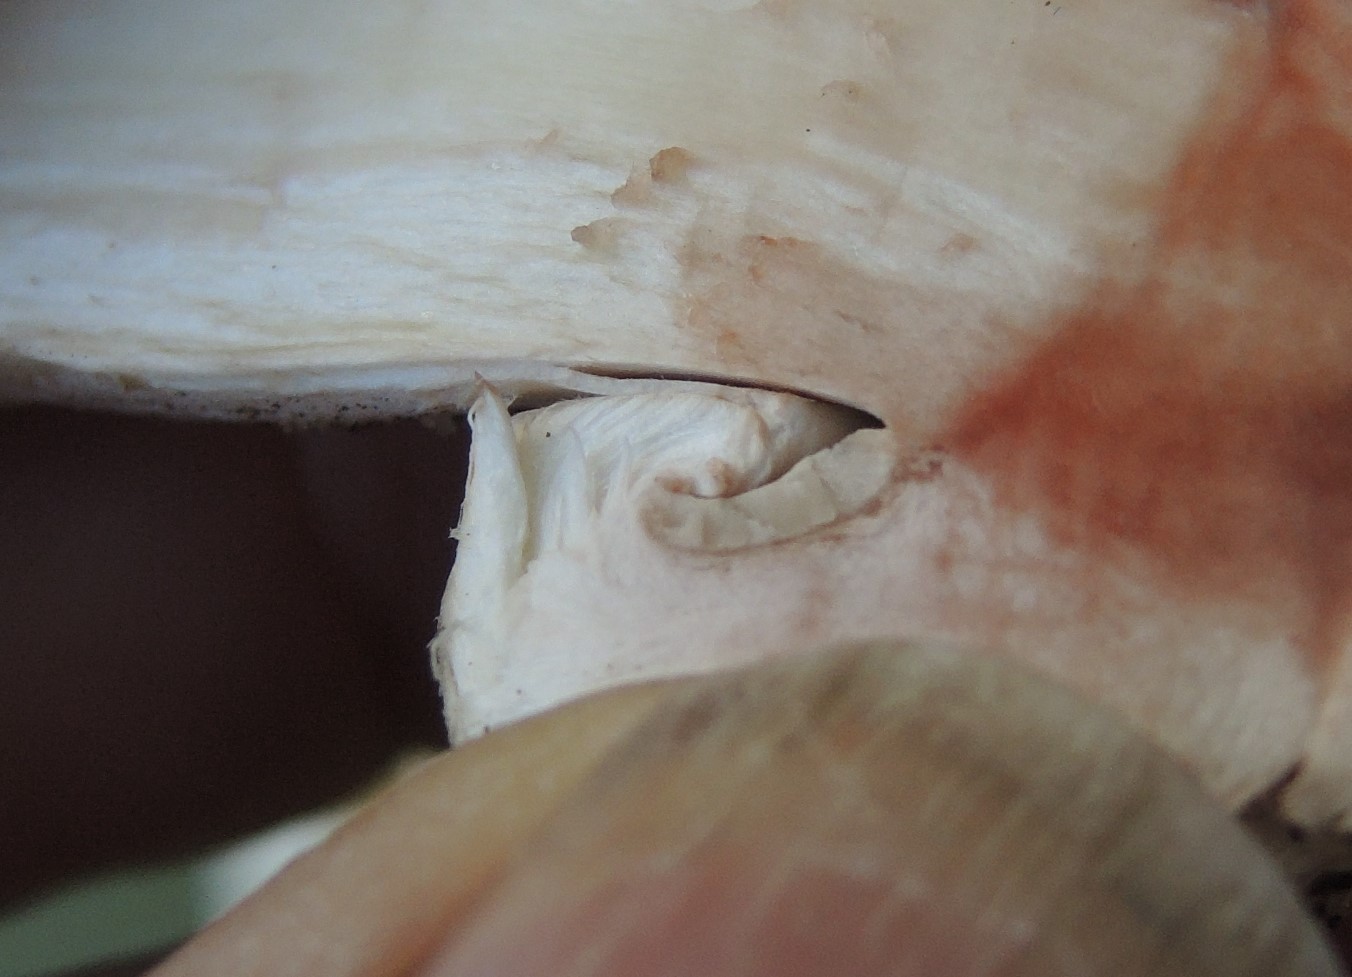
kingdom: Fungi
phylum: Basidiomycota
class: Agaricomycetes
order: Agaricales
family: Agaricaceae
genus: Agaricus
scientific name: Agaricus bernardii
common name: strandengs-champignon
